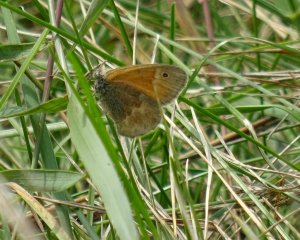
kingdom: Animalia
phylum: Arthropoda
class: Insecta
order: Lepidoptera
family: Nymphalidae
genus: Coenonympha
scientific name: Coenonympha tullia
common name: Large Heath
